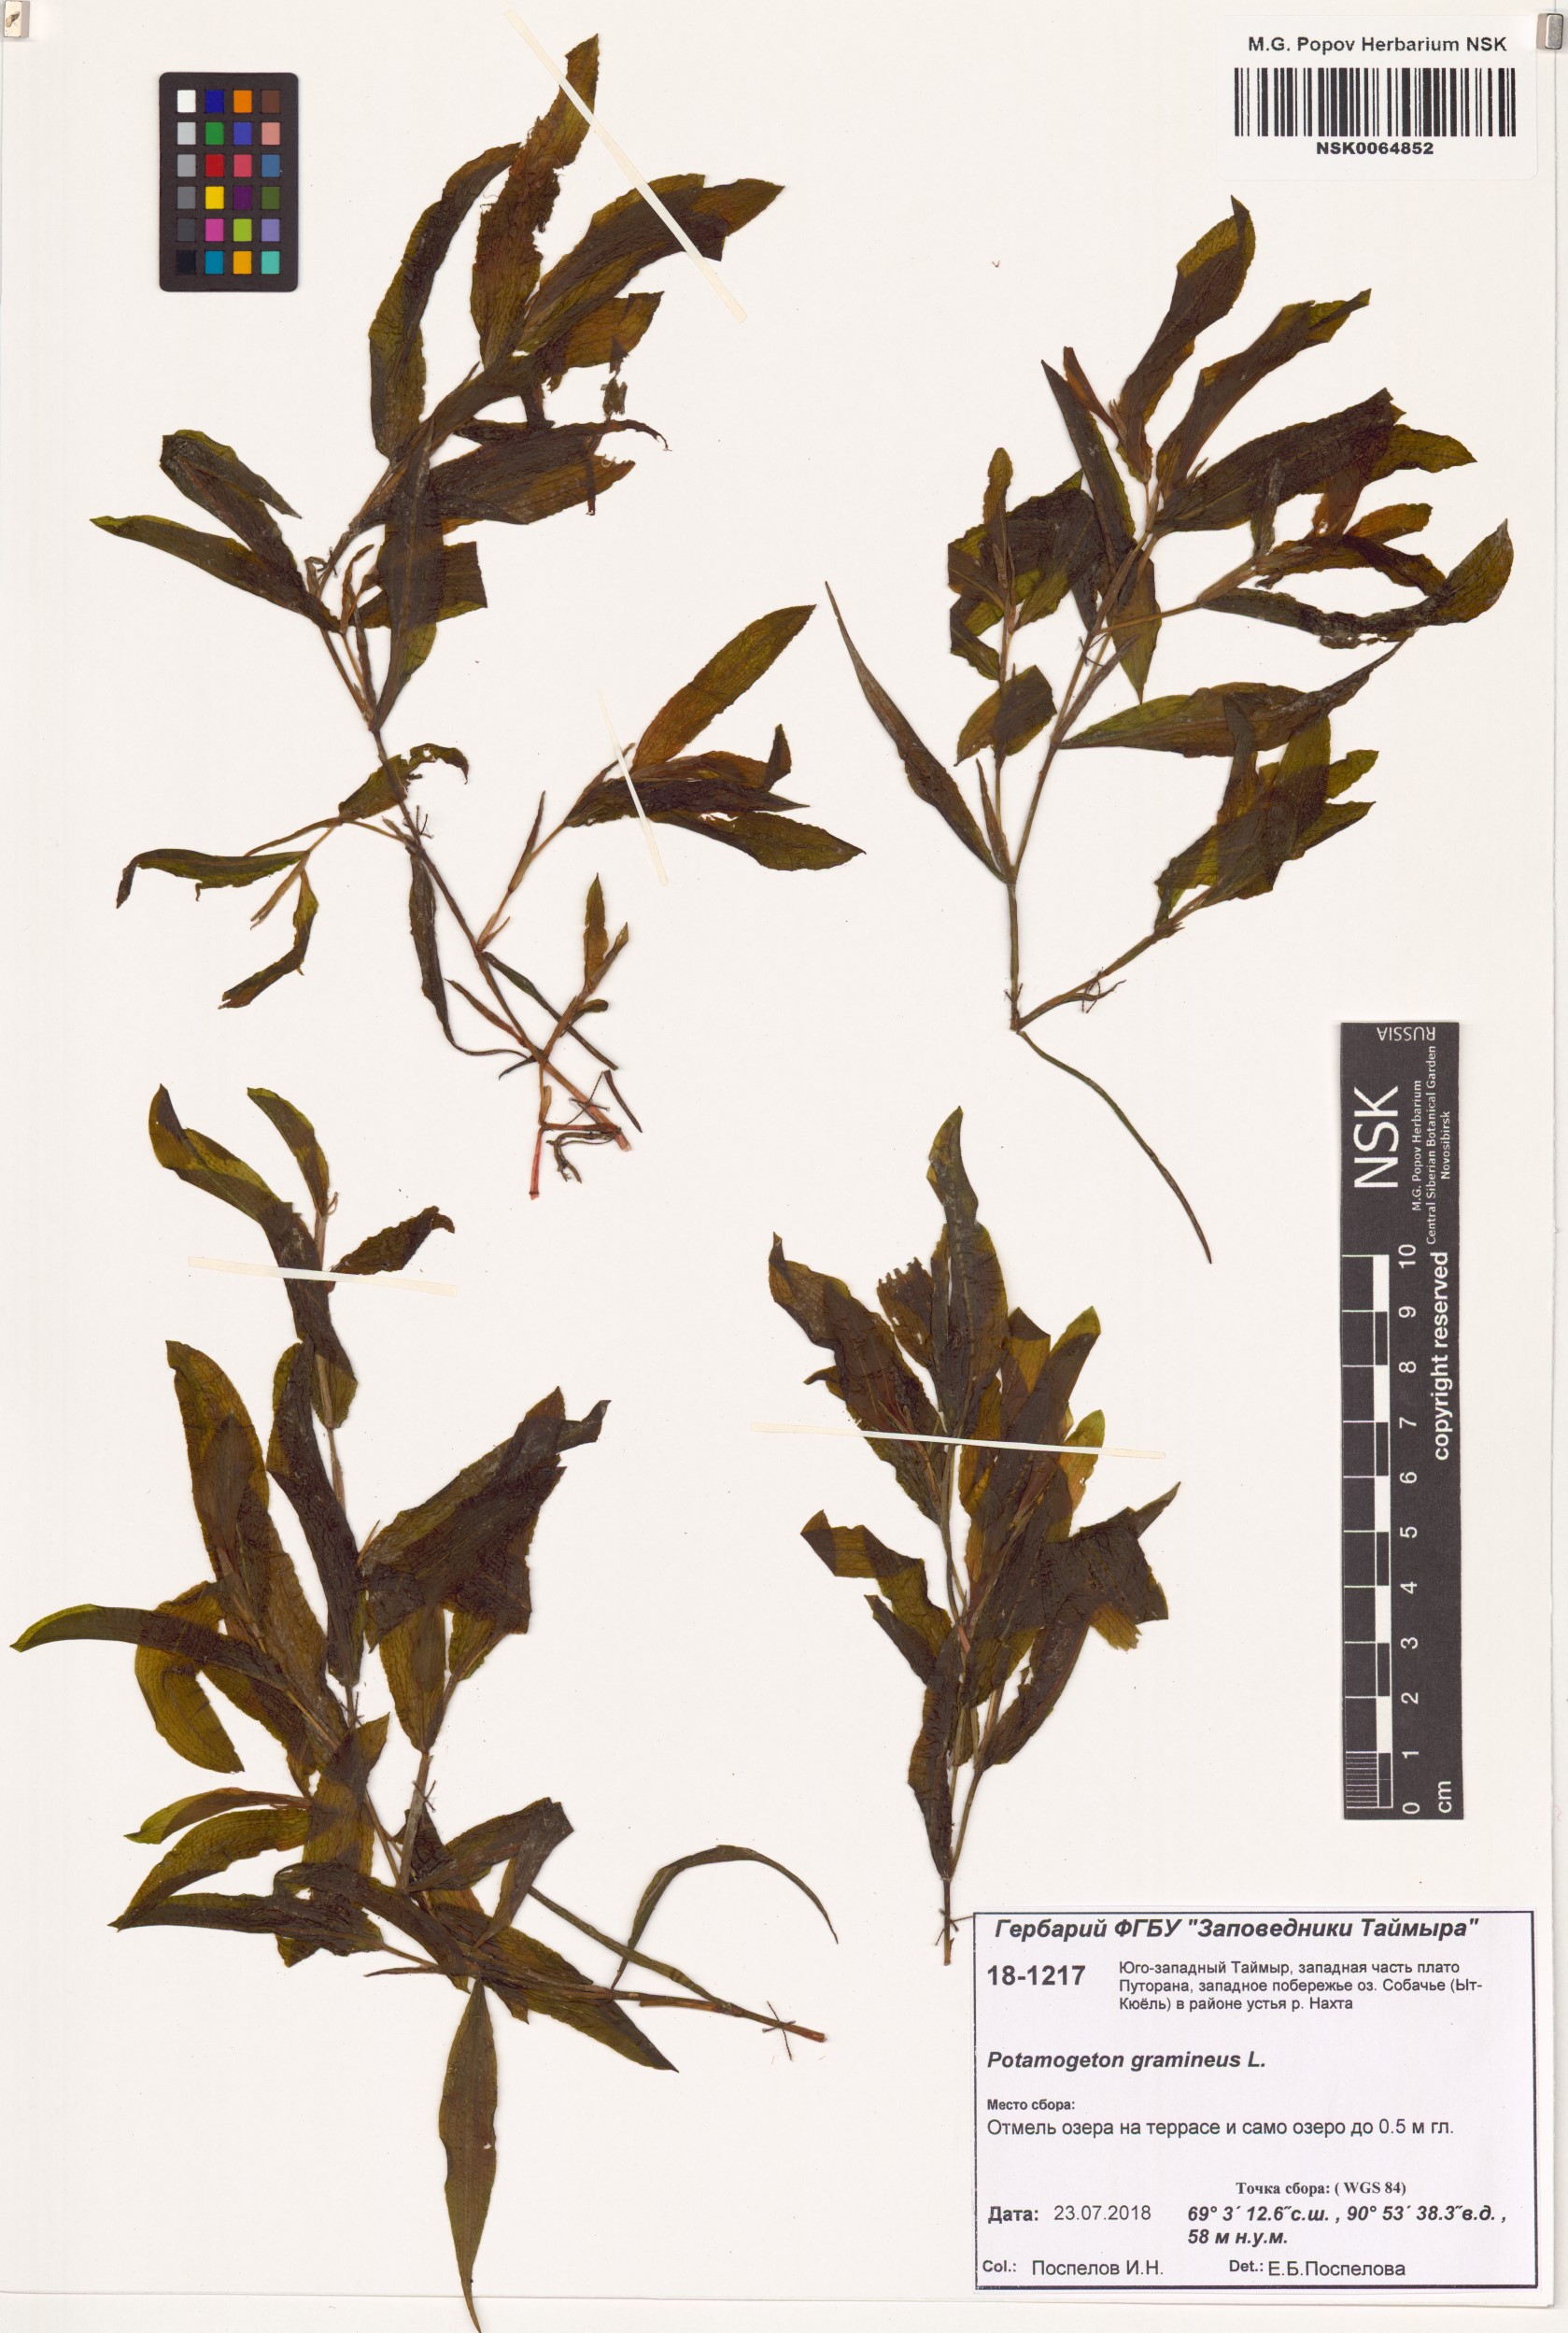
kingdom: Plantae
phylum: Tracheophyta
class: Liliopsida
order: Alismatales
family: Potamogetonaceae
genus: Potamogeton
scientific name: Potamogeton gramineus
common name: Various-leaved pondweed
